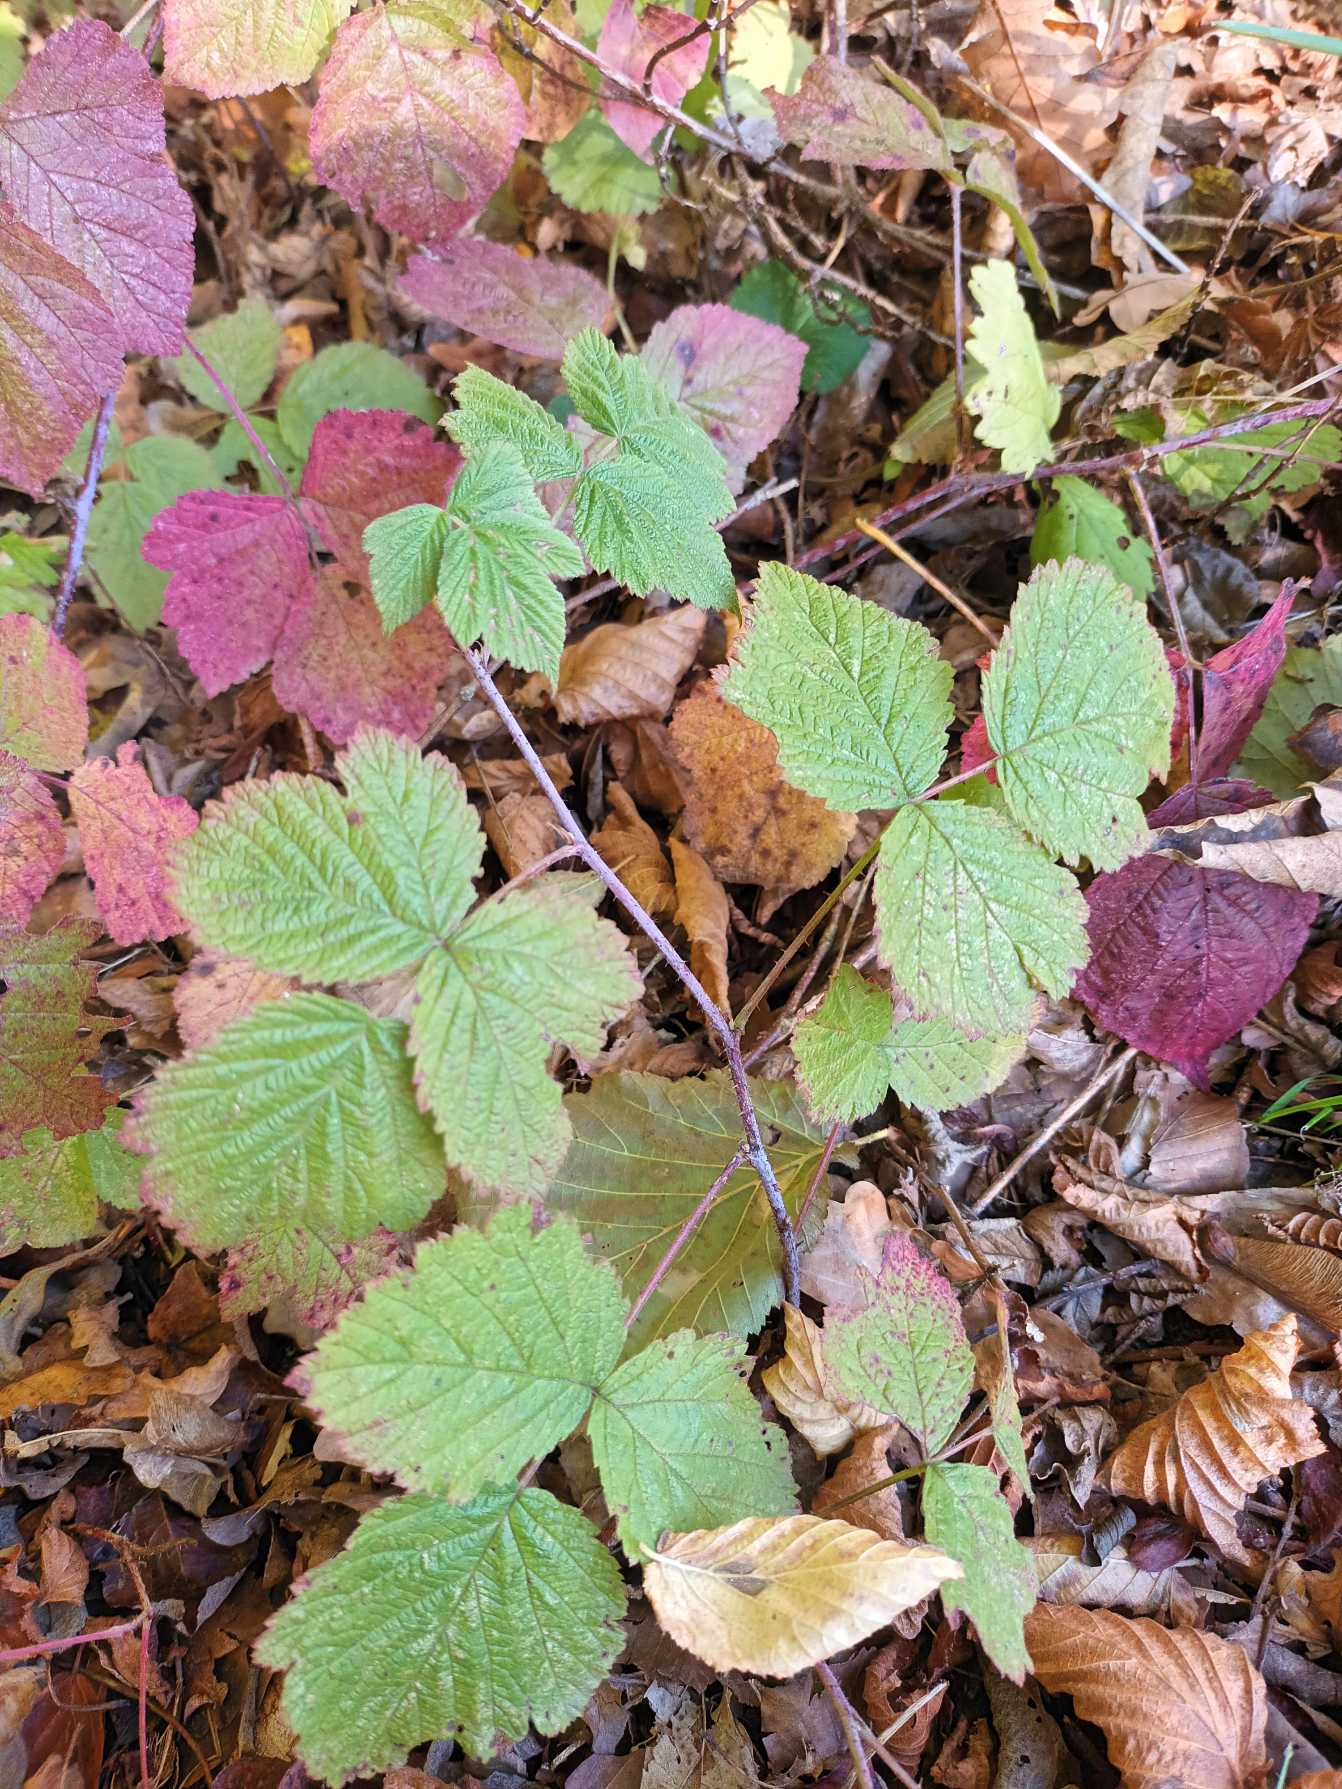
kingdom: Plantae
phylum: Tracheophyta
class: Magnoliopsida
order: Rosales
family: Rosaceae
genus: Rubus
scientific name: Rubus caesius
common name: Korbær
